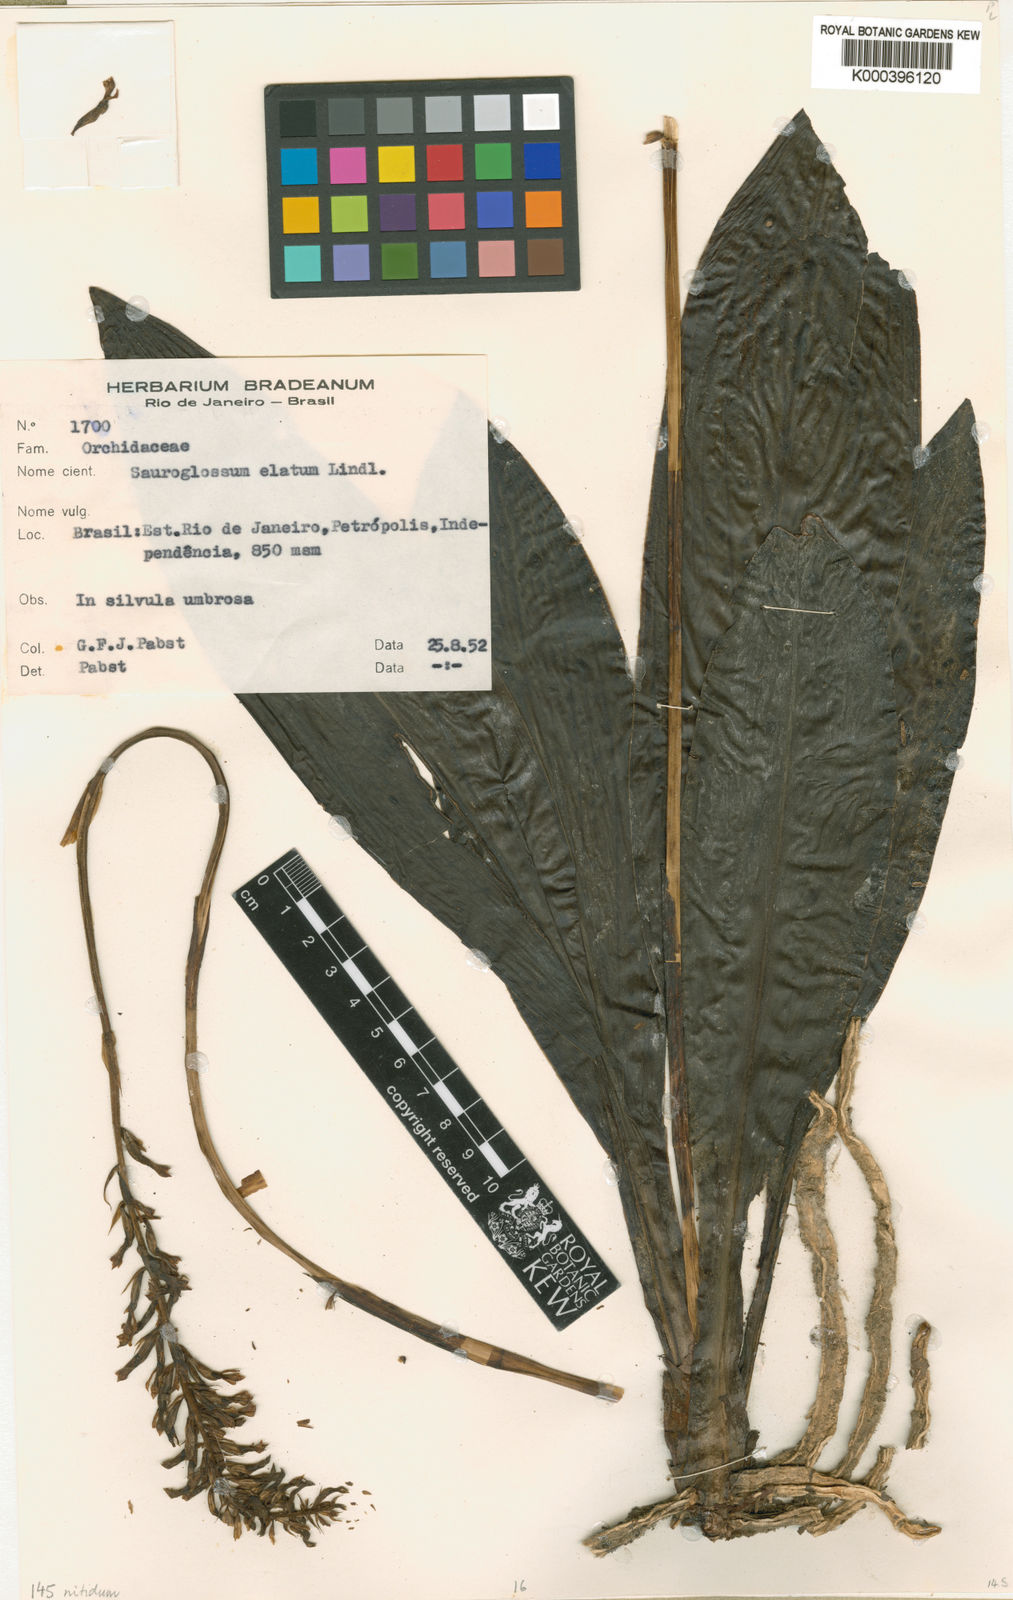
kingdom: Plantae
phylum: Tracheophyta
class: Liliopsida
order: Asparagales
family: Orchidaceae
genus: Sauroglossum
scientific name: Sauroglossum elatum
